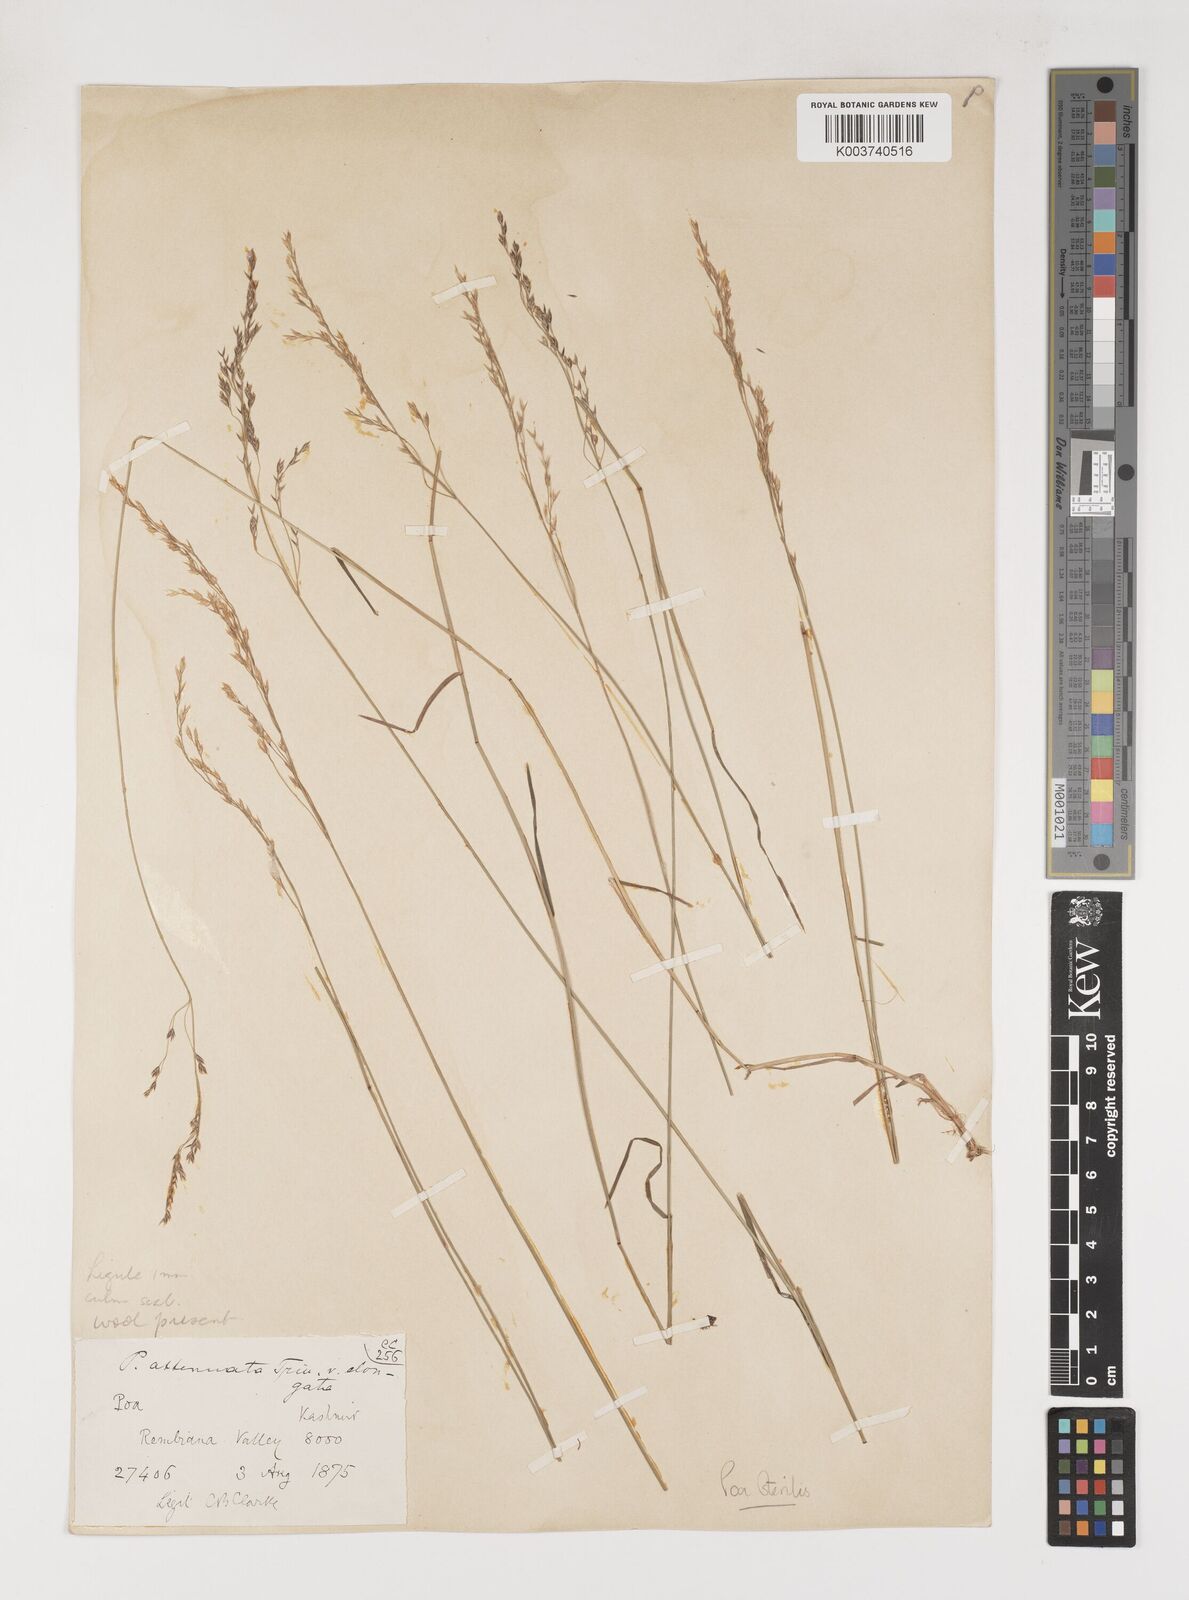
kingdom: Plantae
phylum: Tracheophyta
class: Liliopsida
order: Poales
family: Poaceae
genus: Poa
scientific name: Poa sterilis
